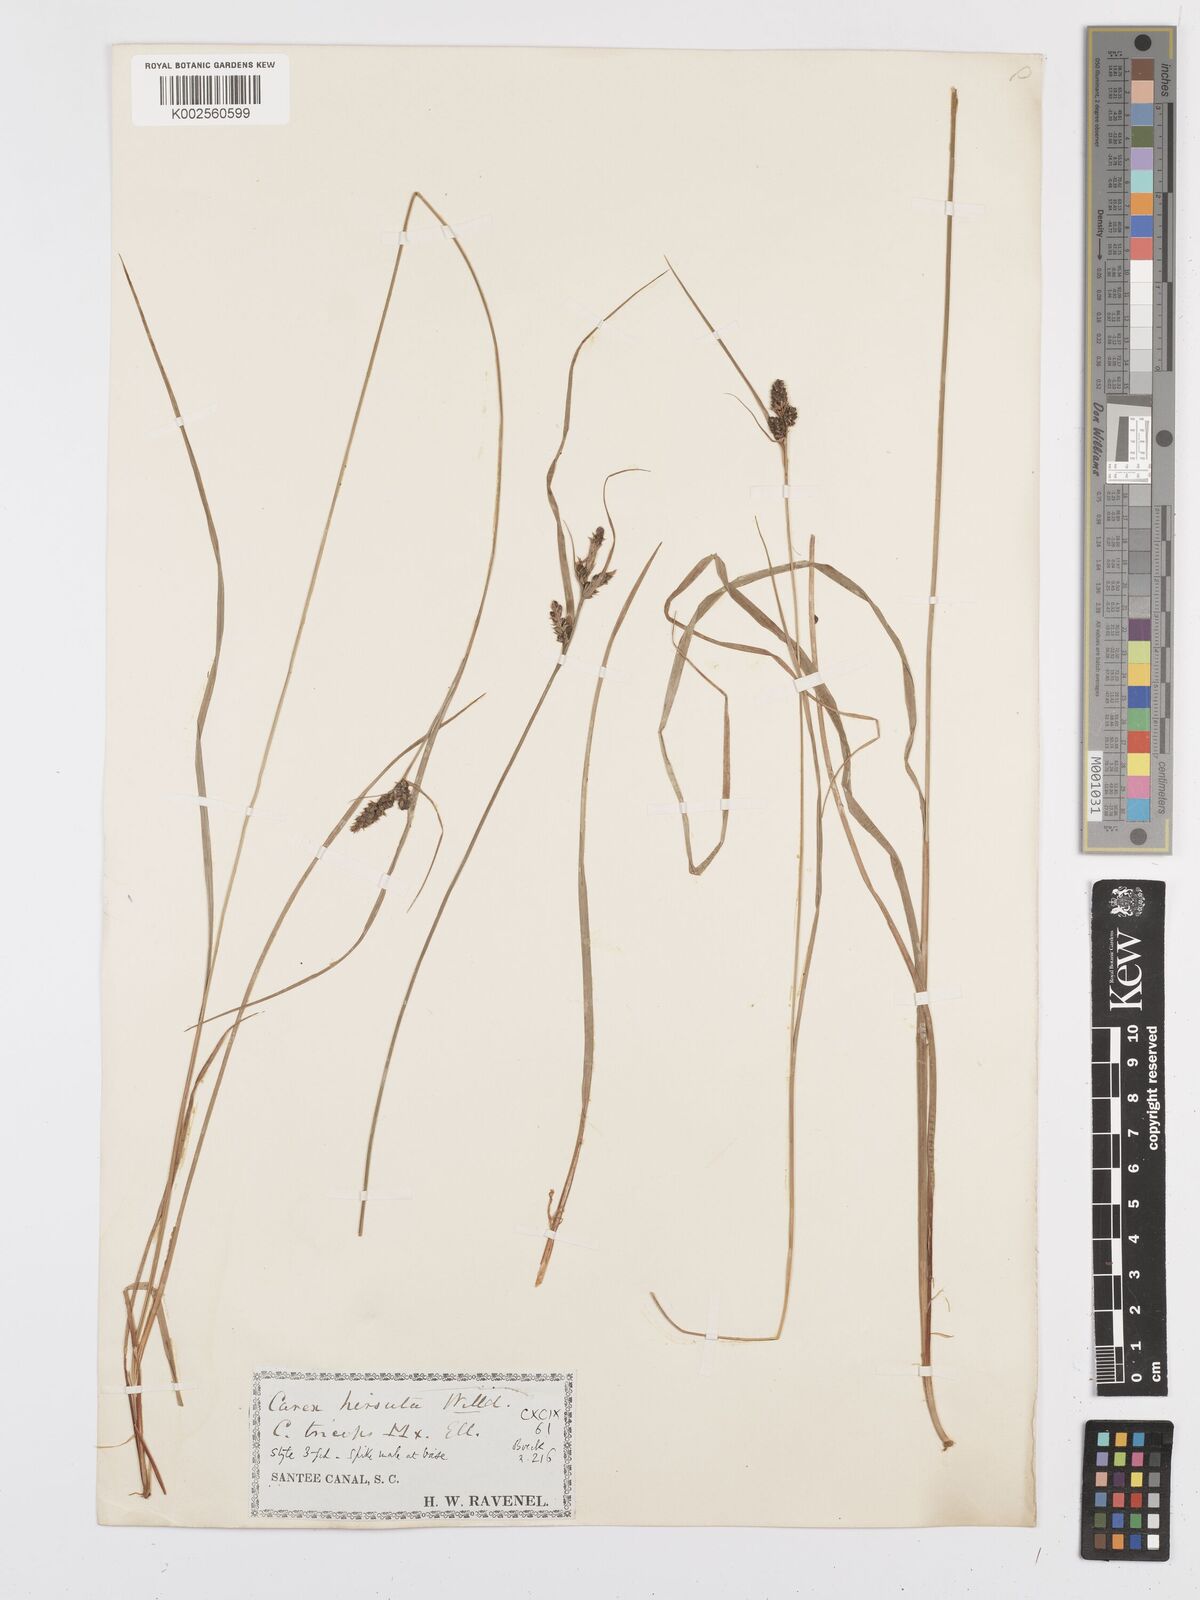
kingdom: Plantae
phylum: Tracheophyta
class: Liliopsida
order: Poales
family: Cyperaceae
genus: Carex
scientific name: Carex complanata
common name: Hirsute sedge
